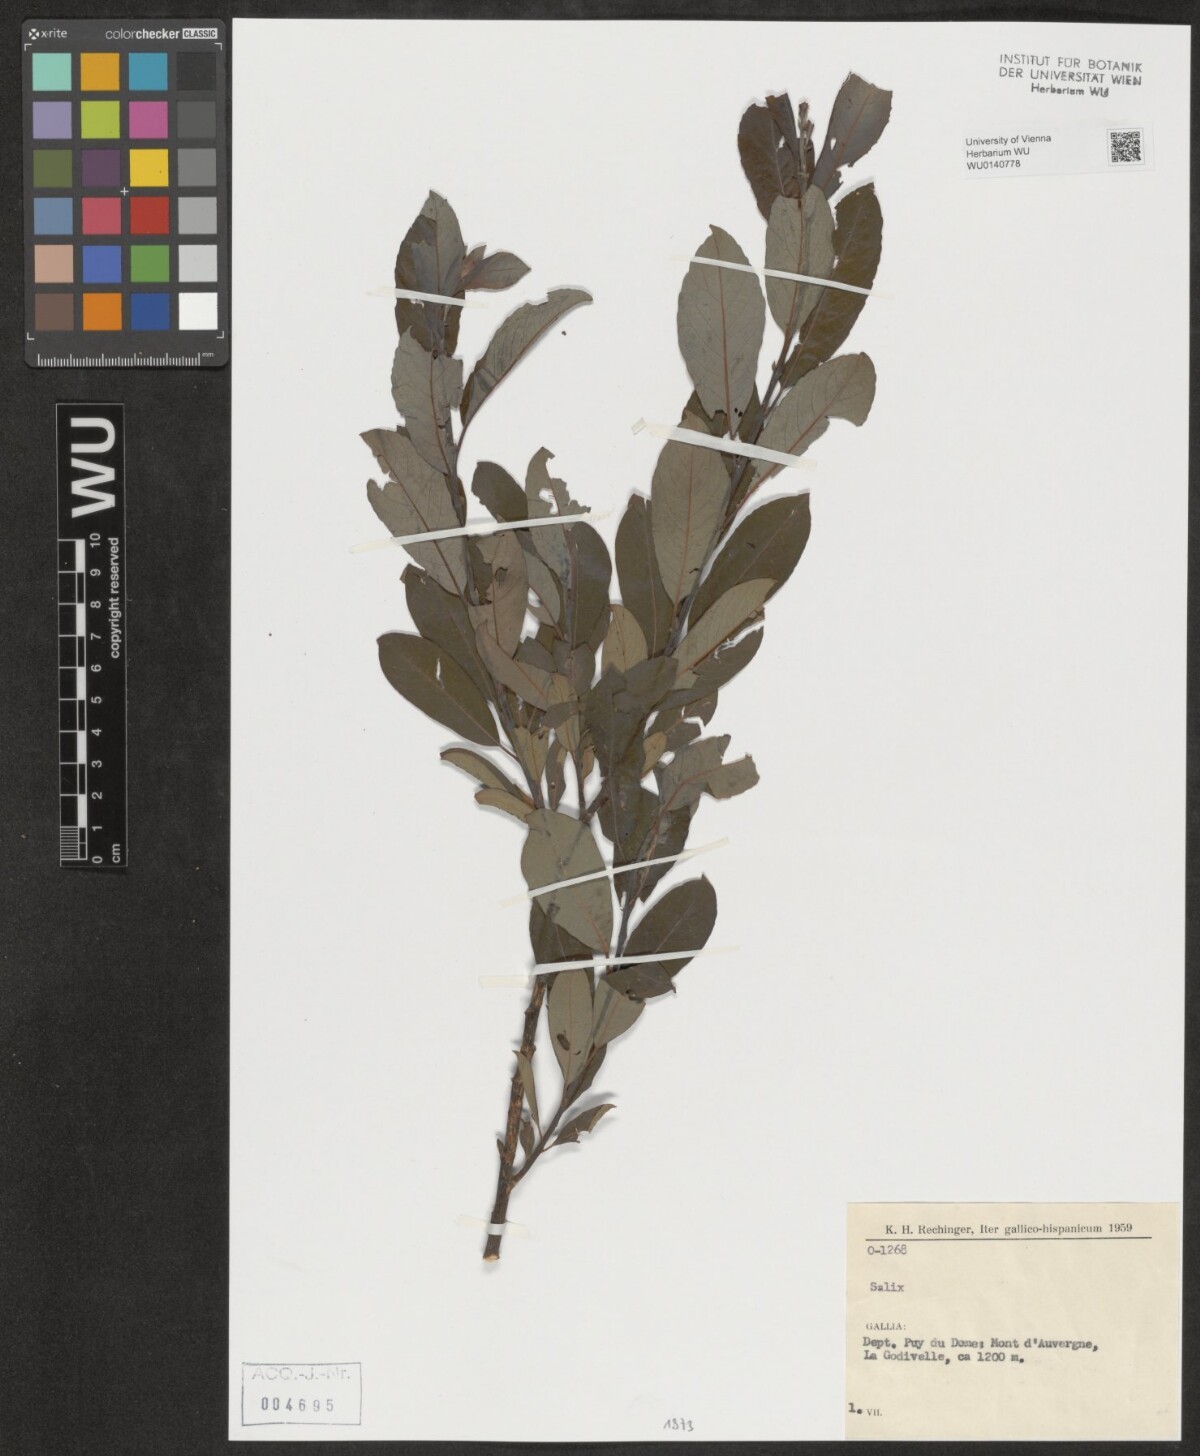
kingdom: Plantae
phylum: Tracheophyta
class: Magnoliopsida
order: Malpighiales
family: Salicaceae
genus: Salix
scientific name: Salix
